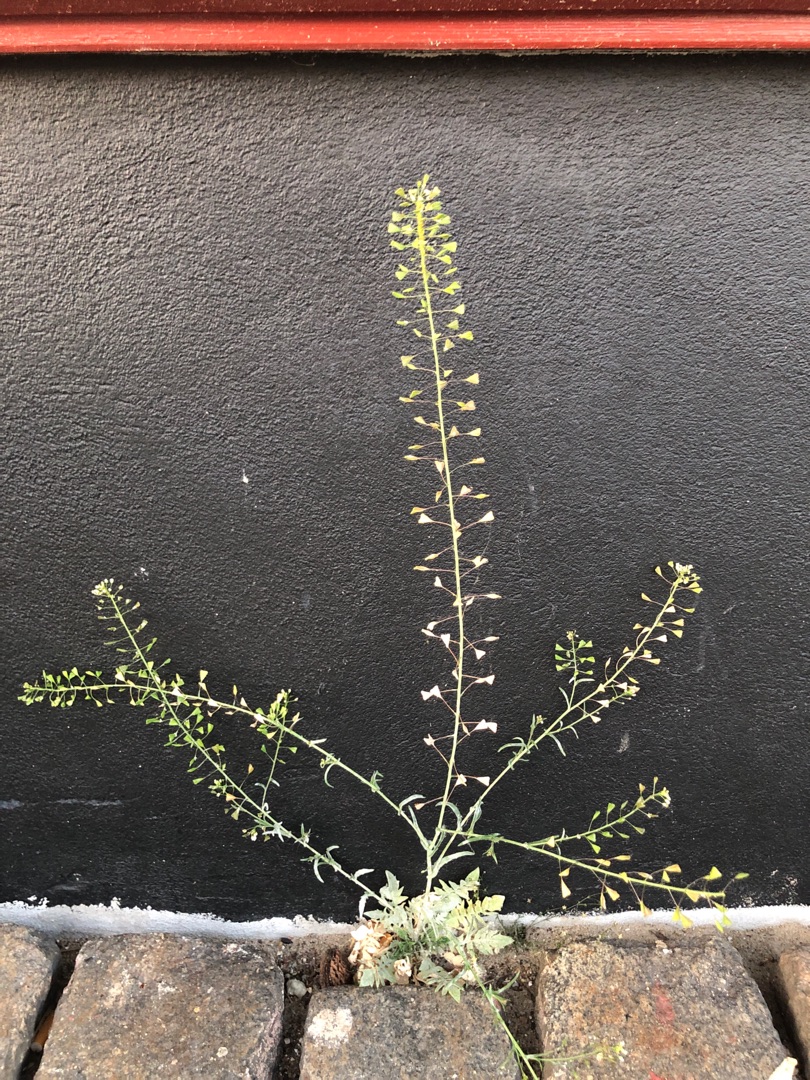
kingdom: Plantae
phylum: Tracheophyta
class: Magnoliopsida
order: Brassicales
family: Brassicaceae
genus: Capsella
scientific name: Capsella bursa-pastoris
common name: Hyrdetaske
